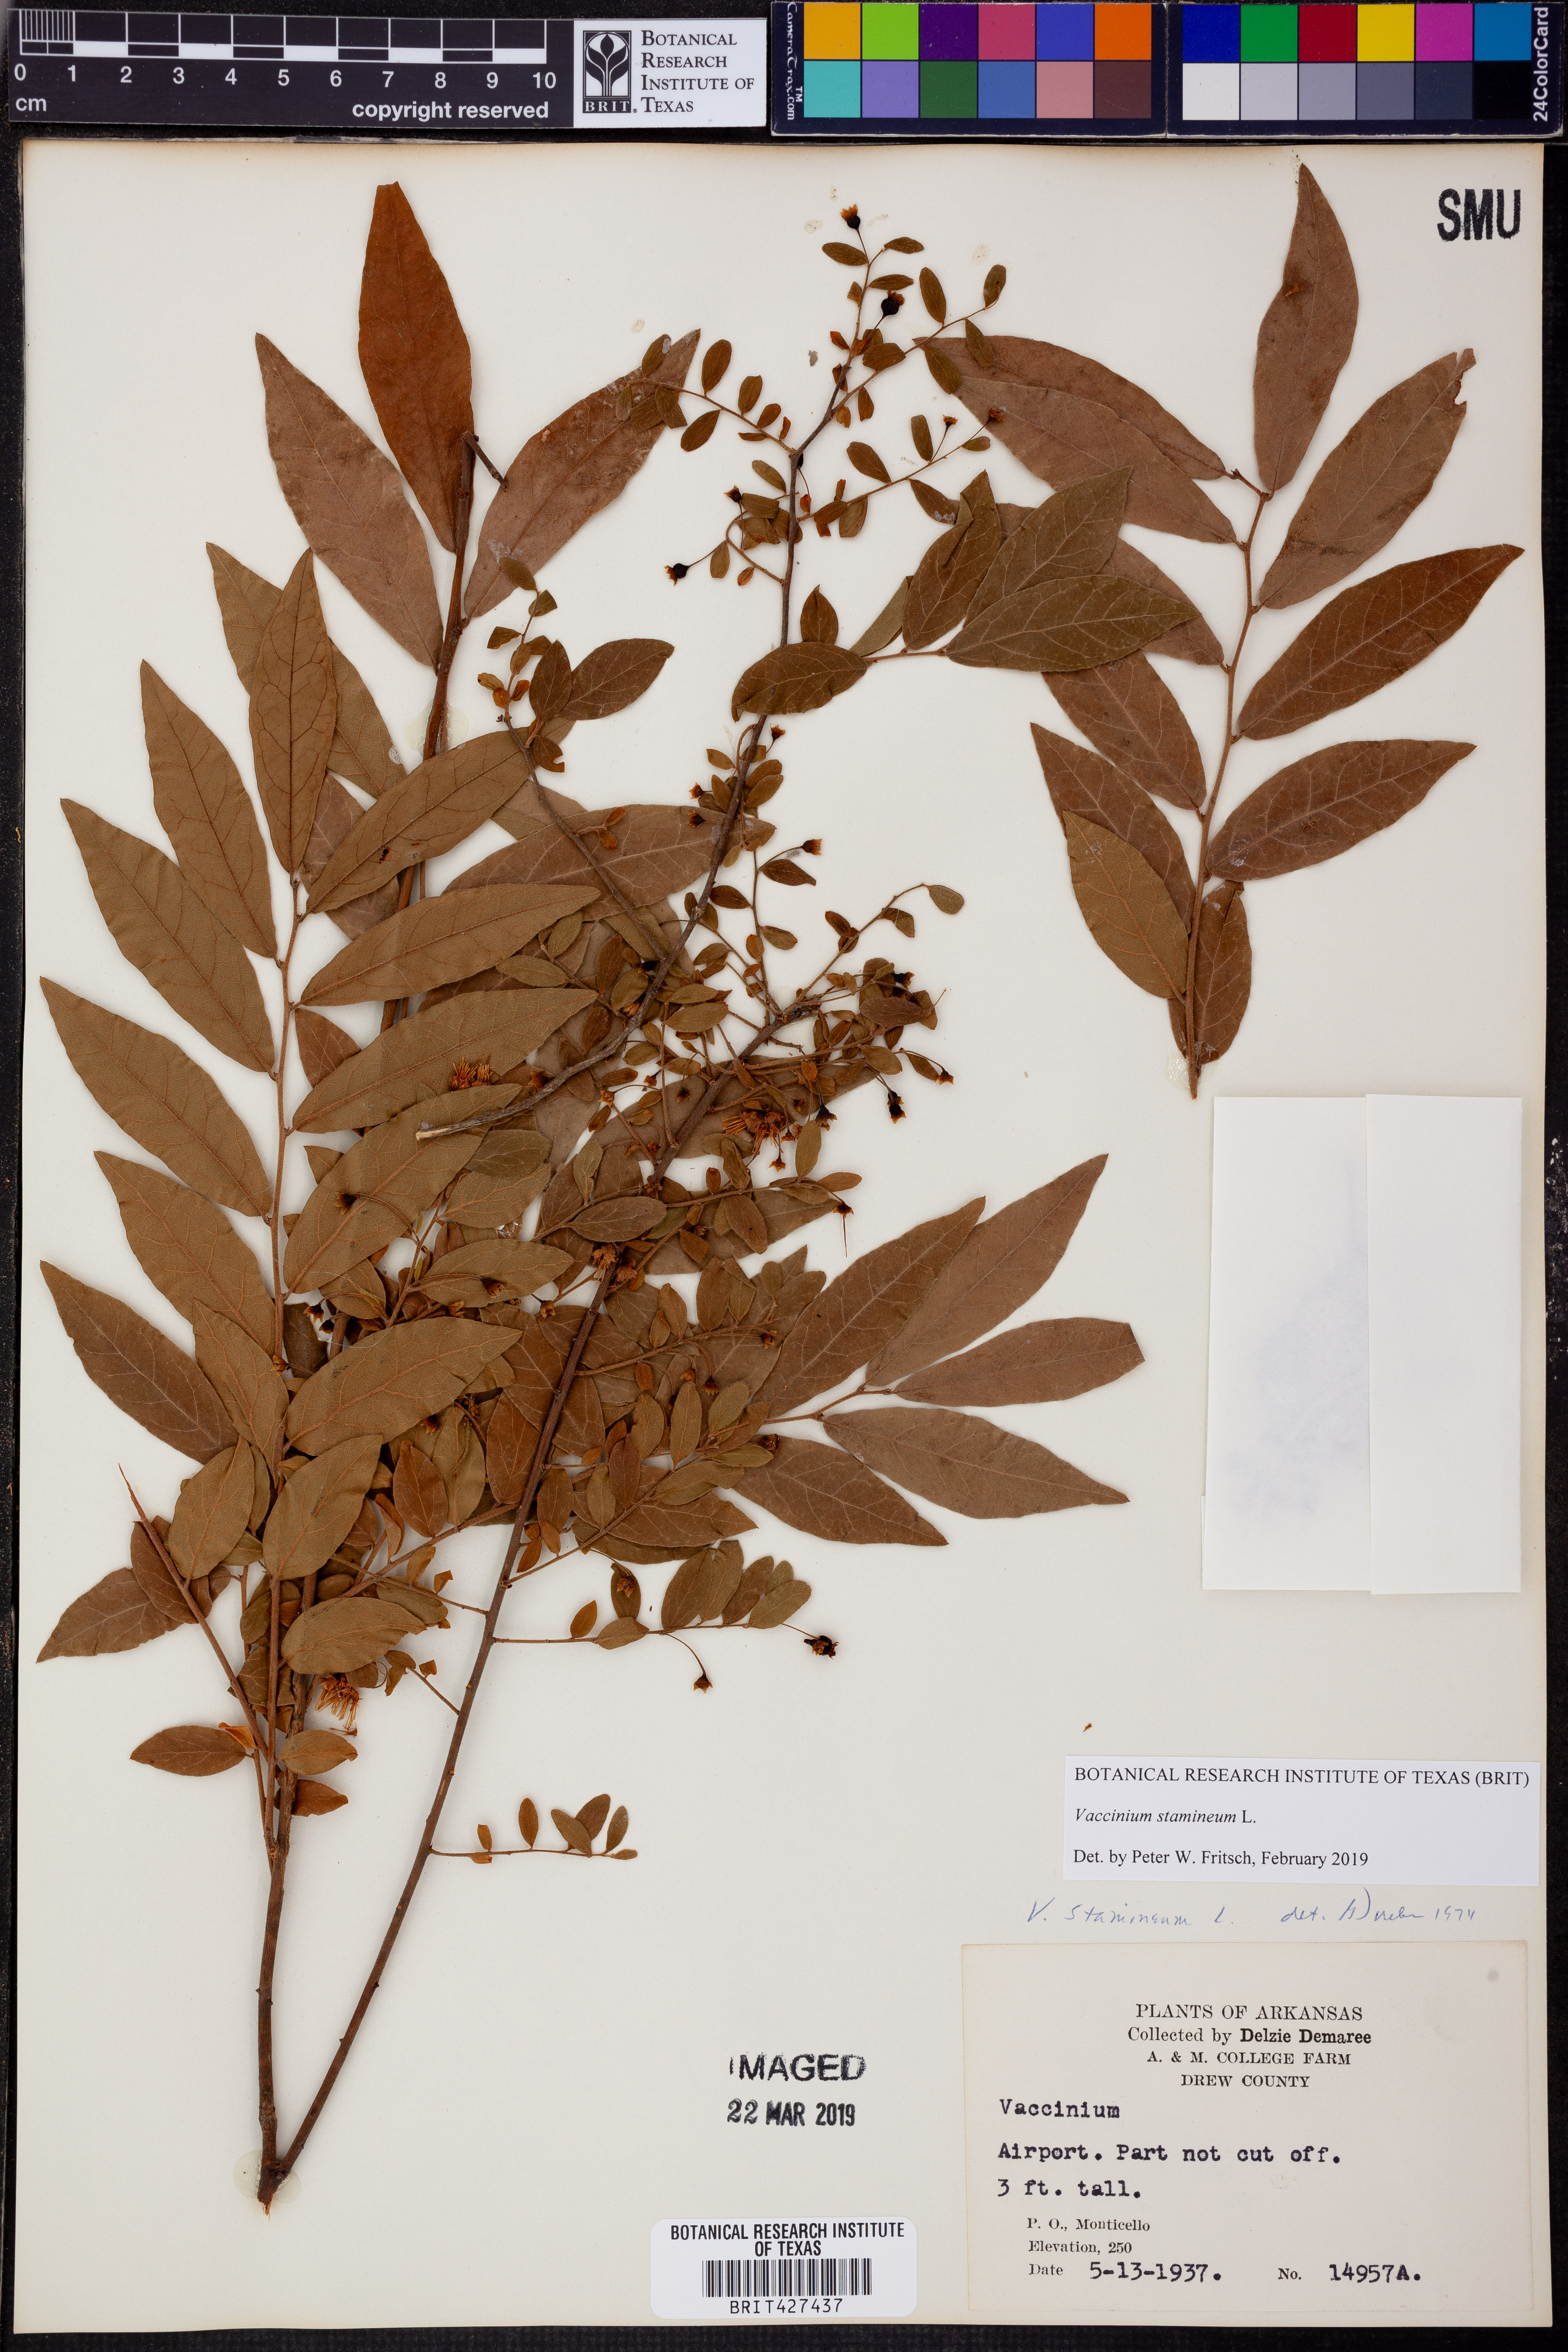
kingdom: Plantae
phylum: Tracheophyta
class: Magnoliopsida
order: Ericales
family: Ericaceae
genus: Vaccinium
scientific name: Vaccinium stamineum
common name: Deerberry
